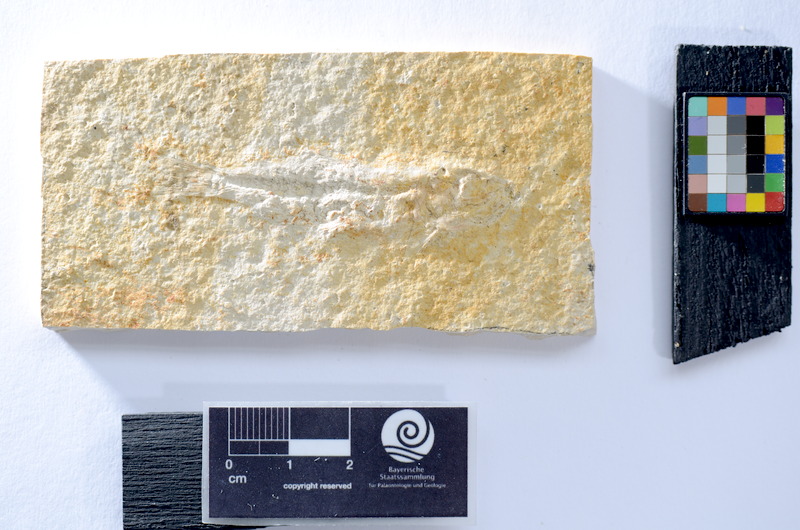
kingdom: Animalia
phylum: Chordata
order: Salmoniformes
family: Orthogonikleithridae
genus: Leptolepides
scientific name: Leptolepides
